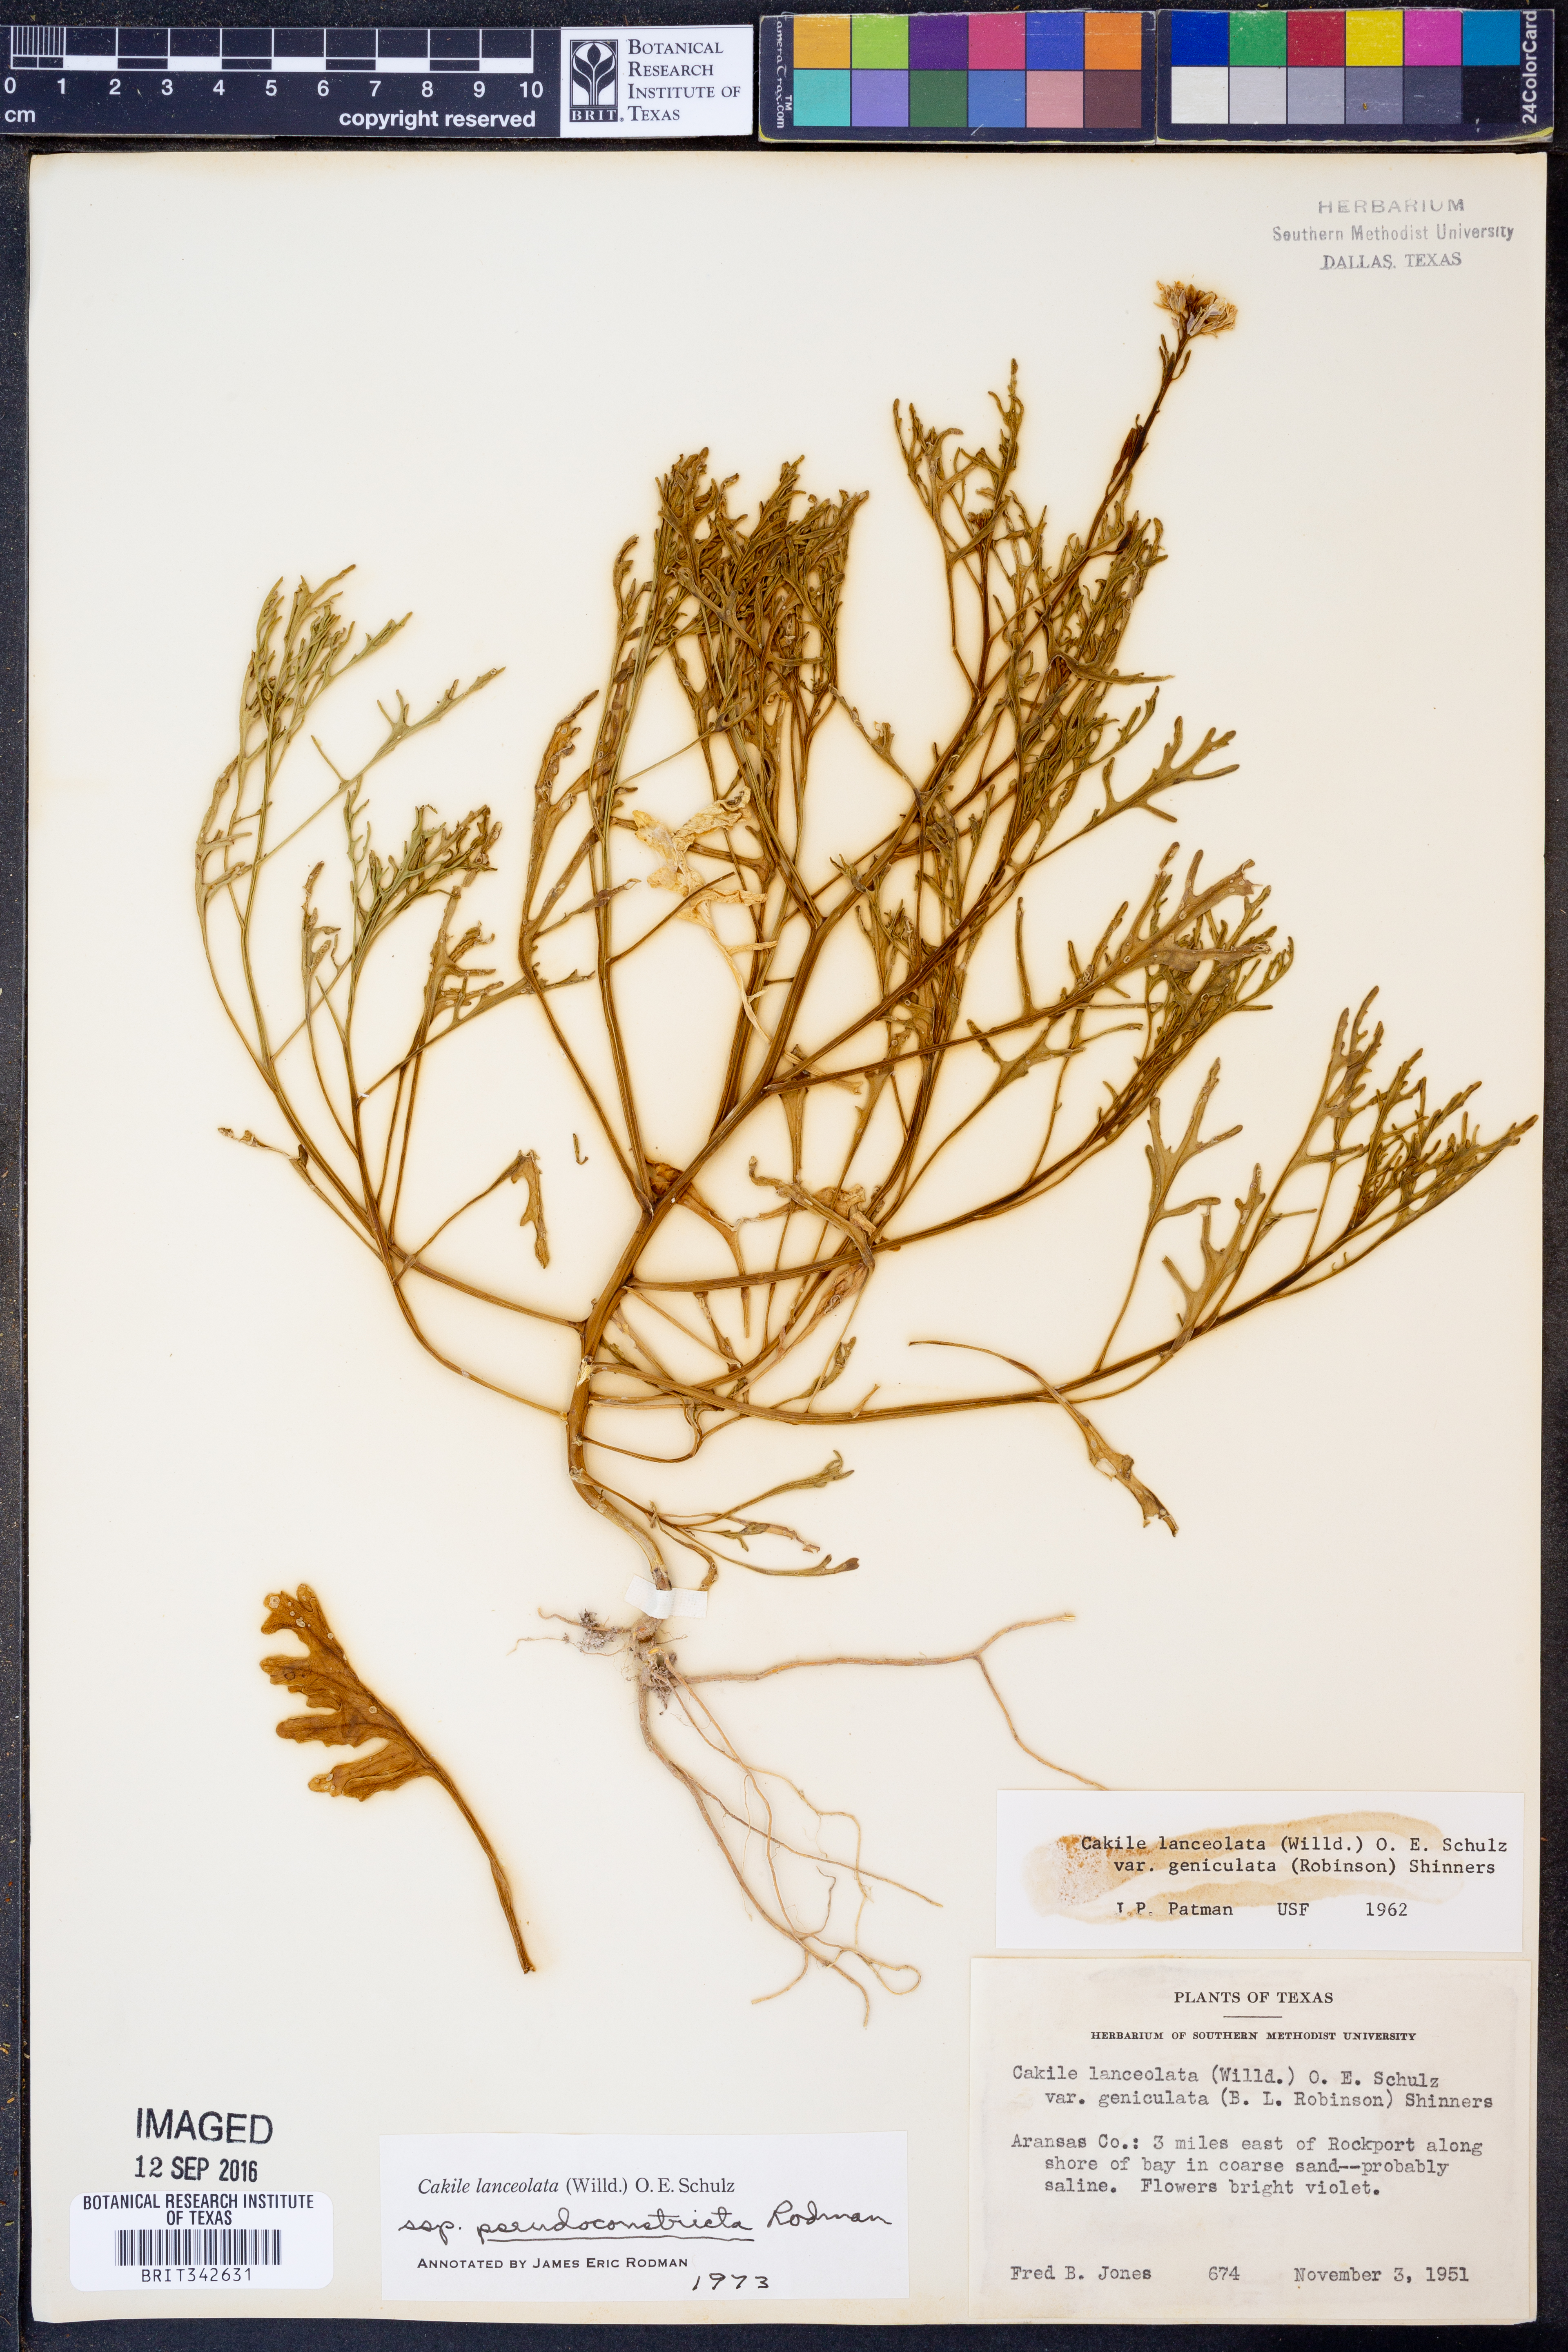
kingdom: Plantae
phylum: Tracheophyta
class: Magnoliopsida
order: Brassicales
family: Brassicaceae
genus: Cakile
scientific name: Cakile lanceolata
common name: Sea rocket
